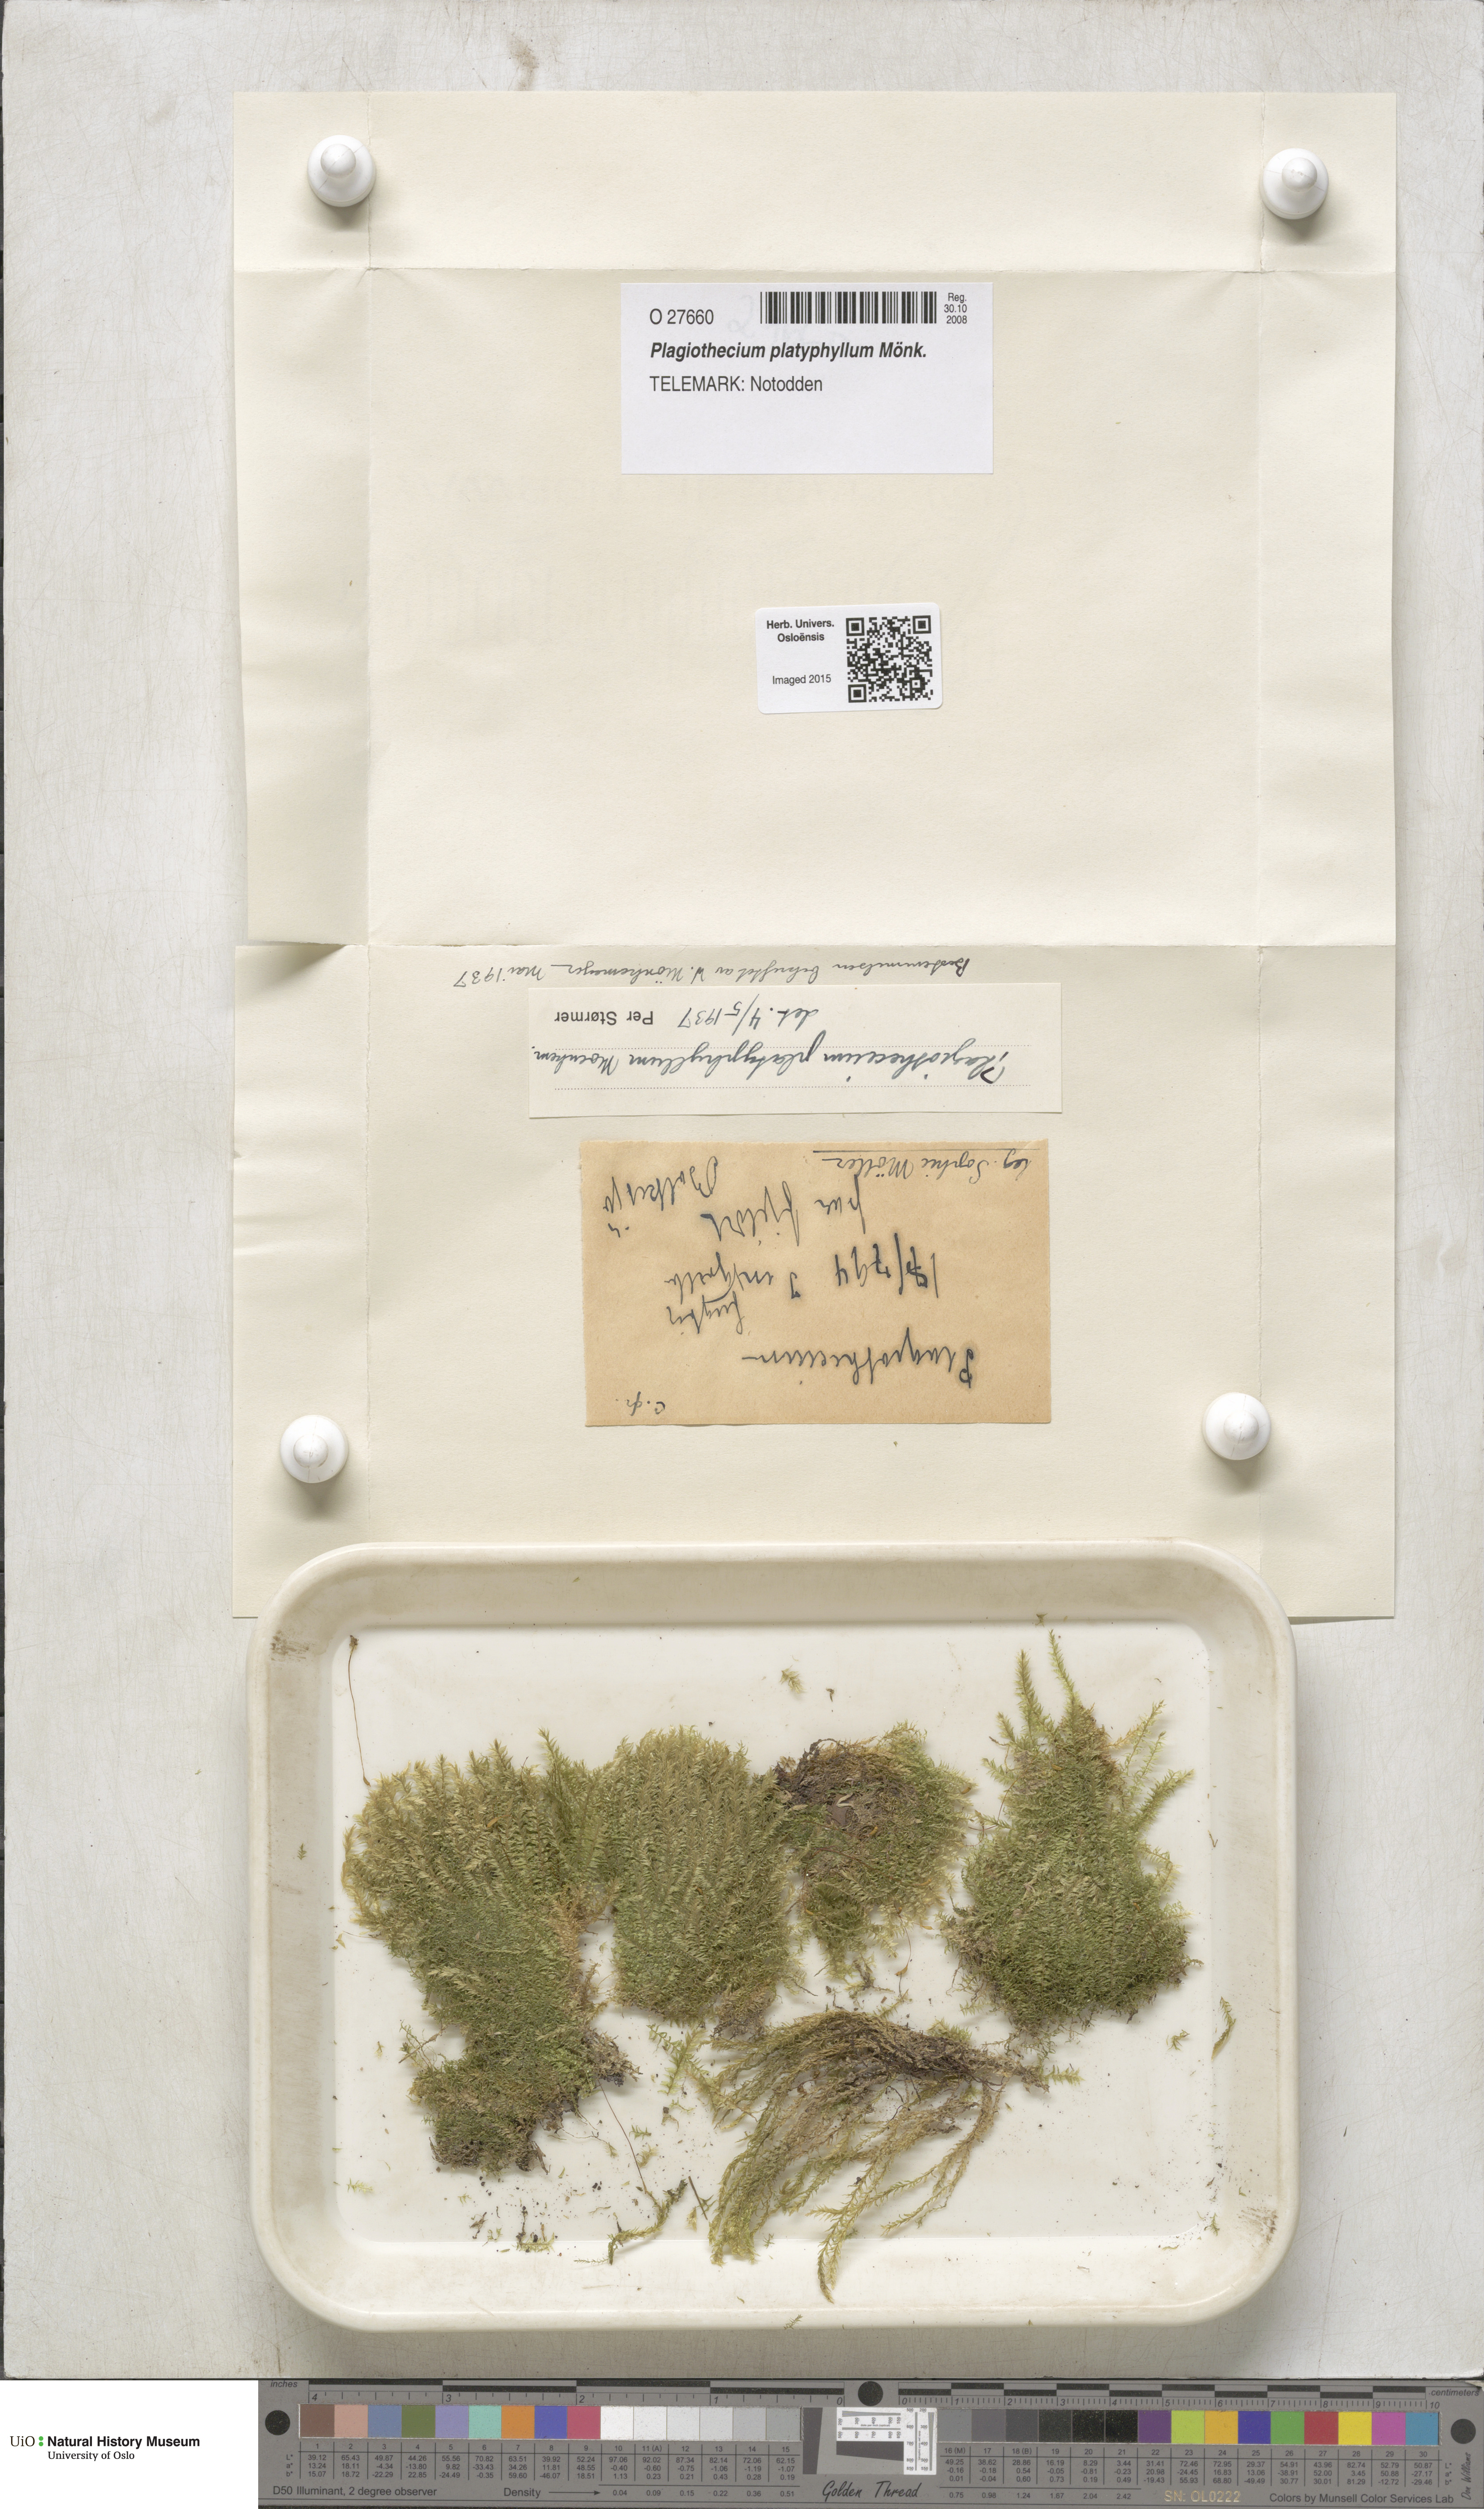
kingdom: Plantae
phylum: Bryophyta
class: Bryopsida
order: Hypnales
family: Plagiotheciaceae
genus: Plagiothecium
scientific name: Plagiothecium platyphyllum
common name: Alpine silk-moss
